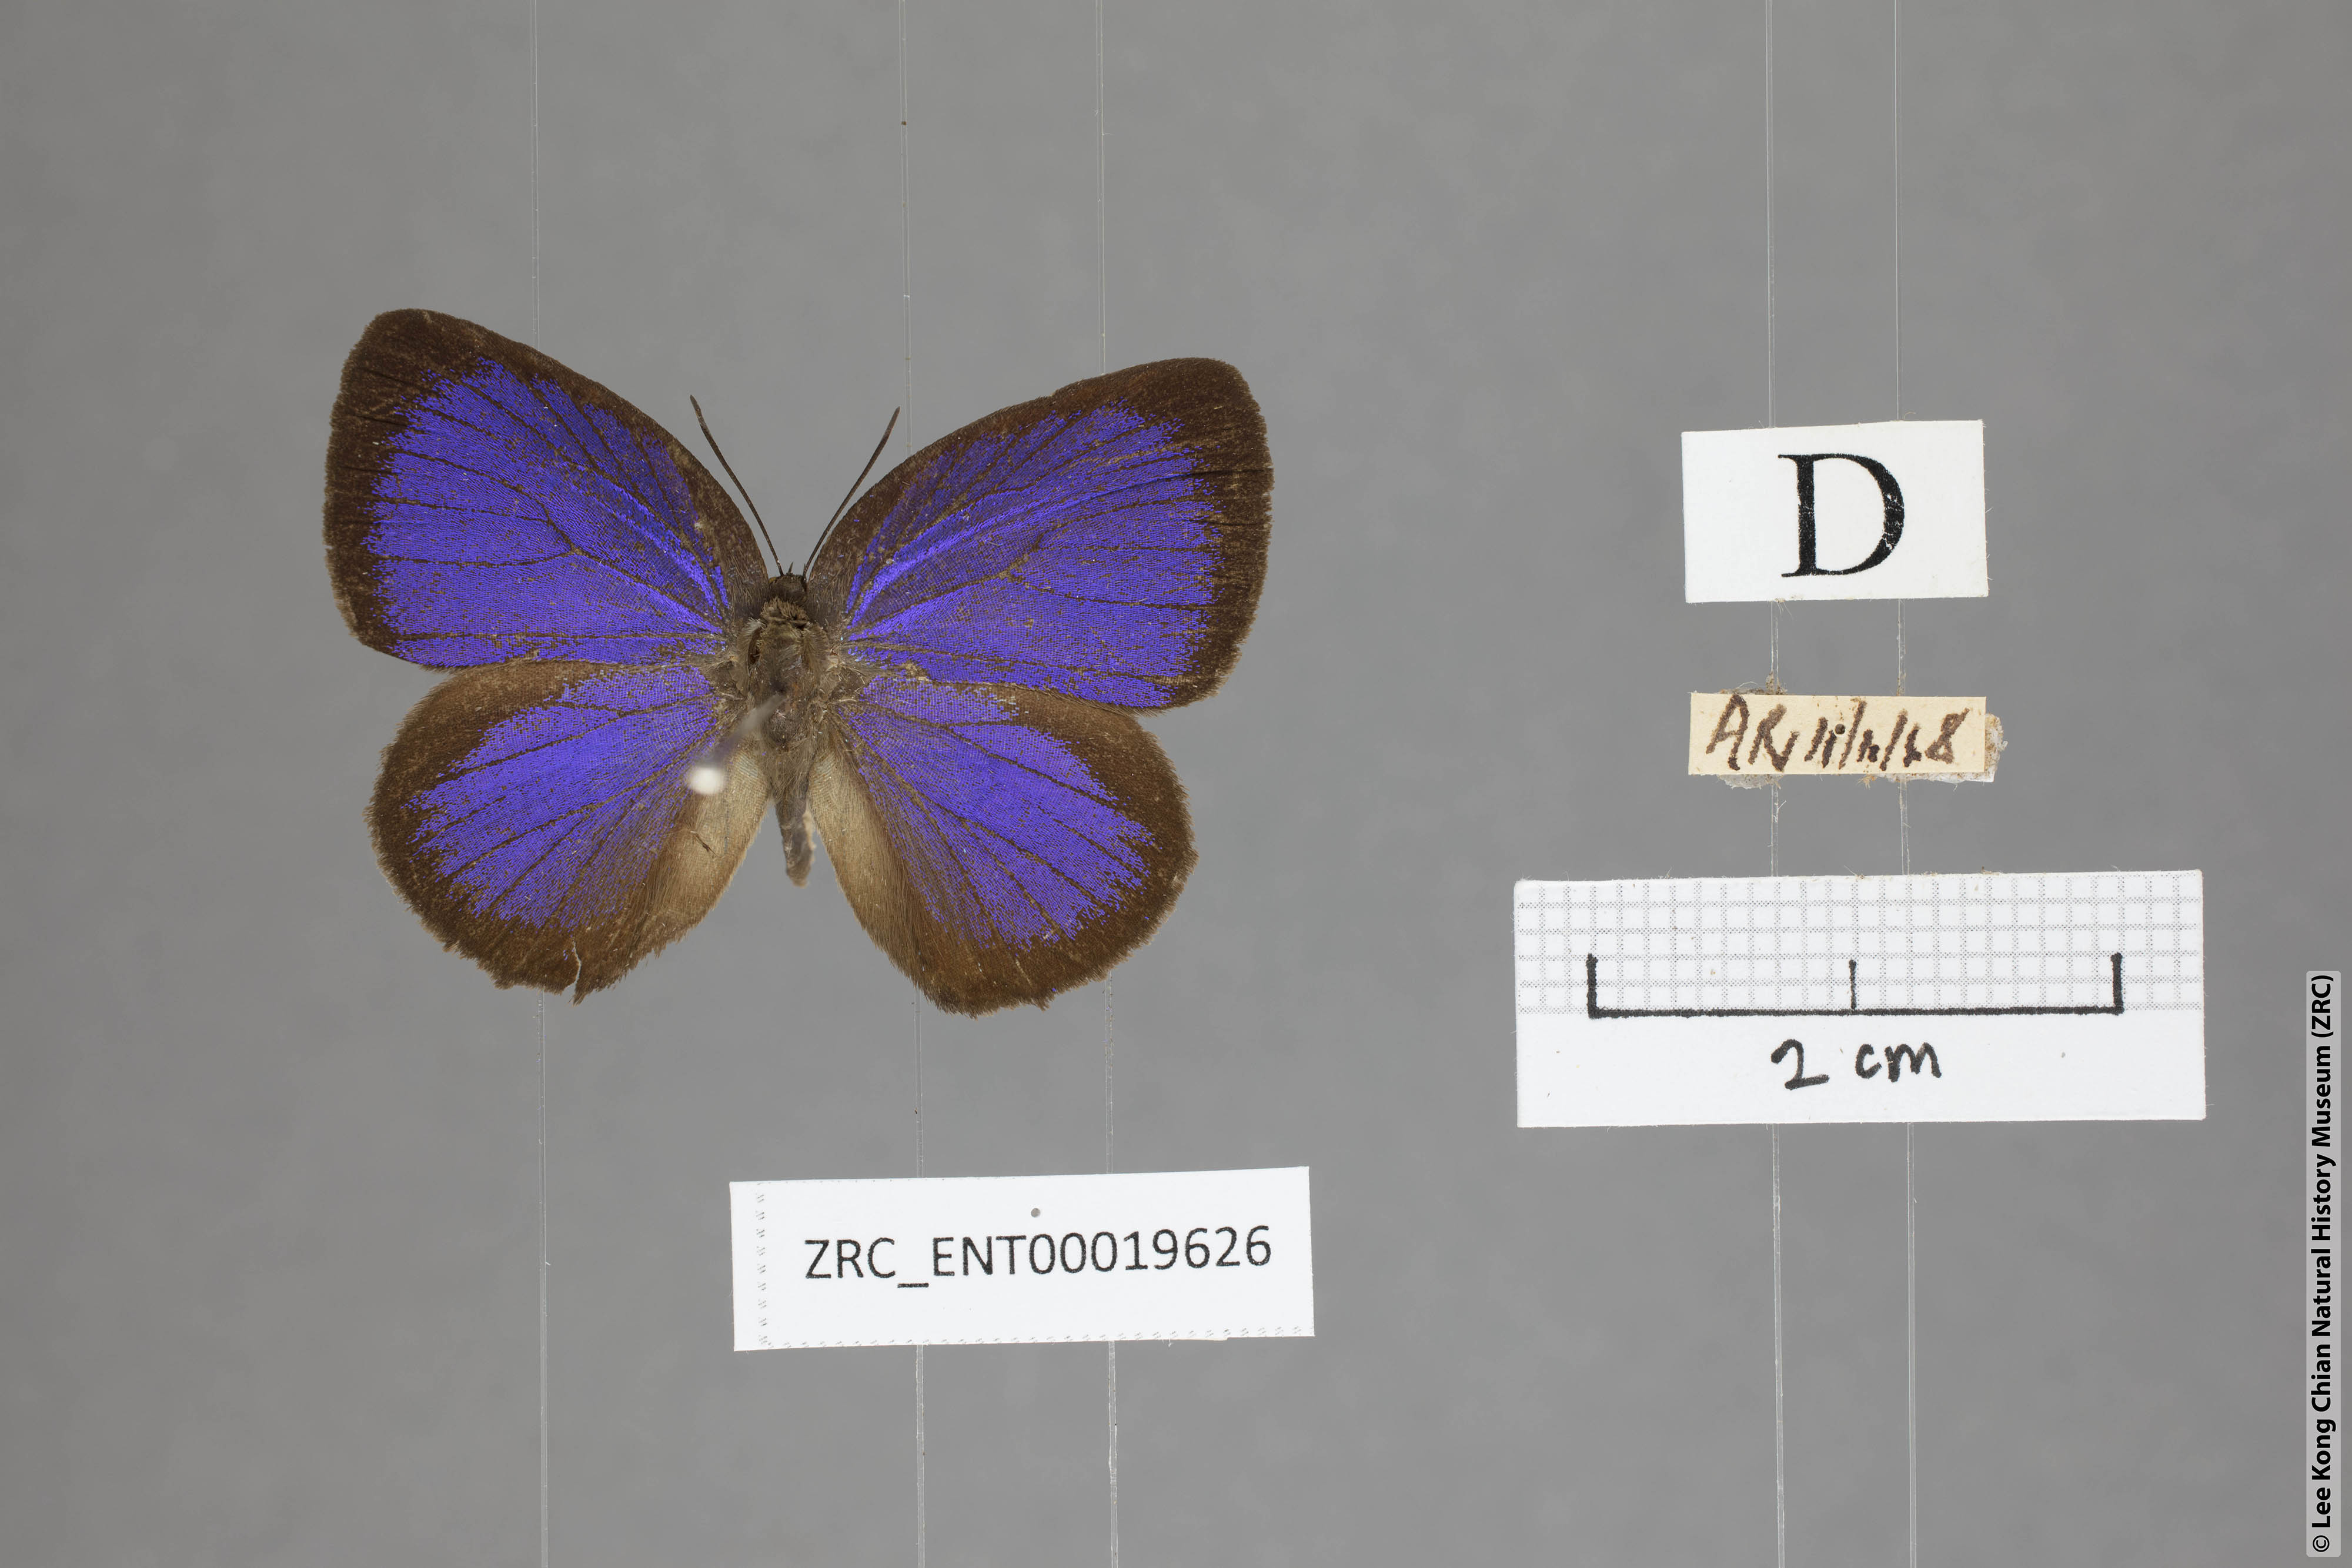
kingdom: Animalia
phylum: Arthropoda
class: Insecta
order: Lepidoptera
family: Lycaenidae
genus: Arhopala
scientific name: Arhopala major
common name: Major yellow oakblue
